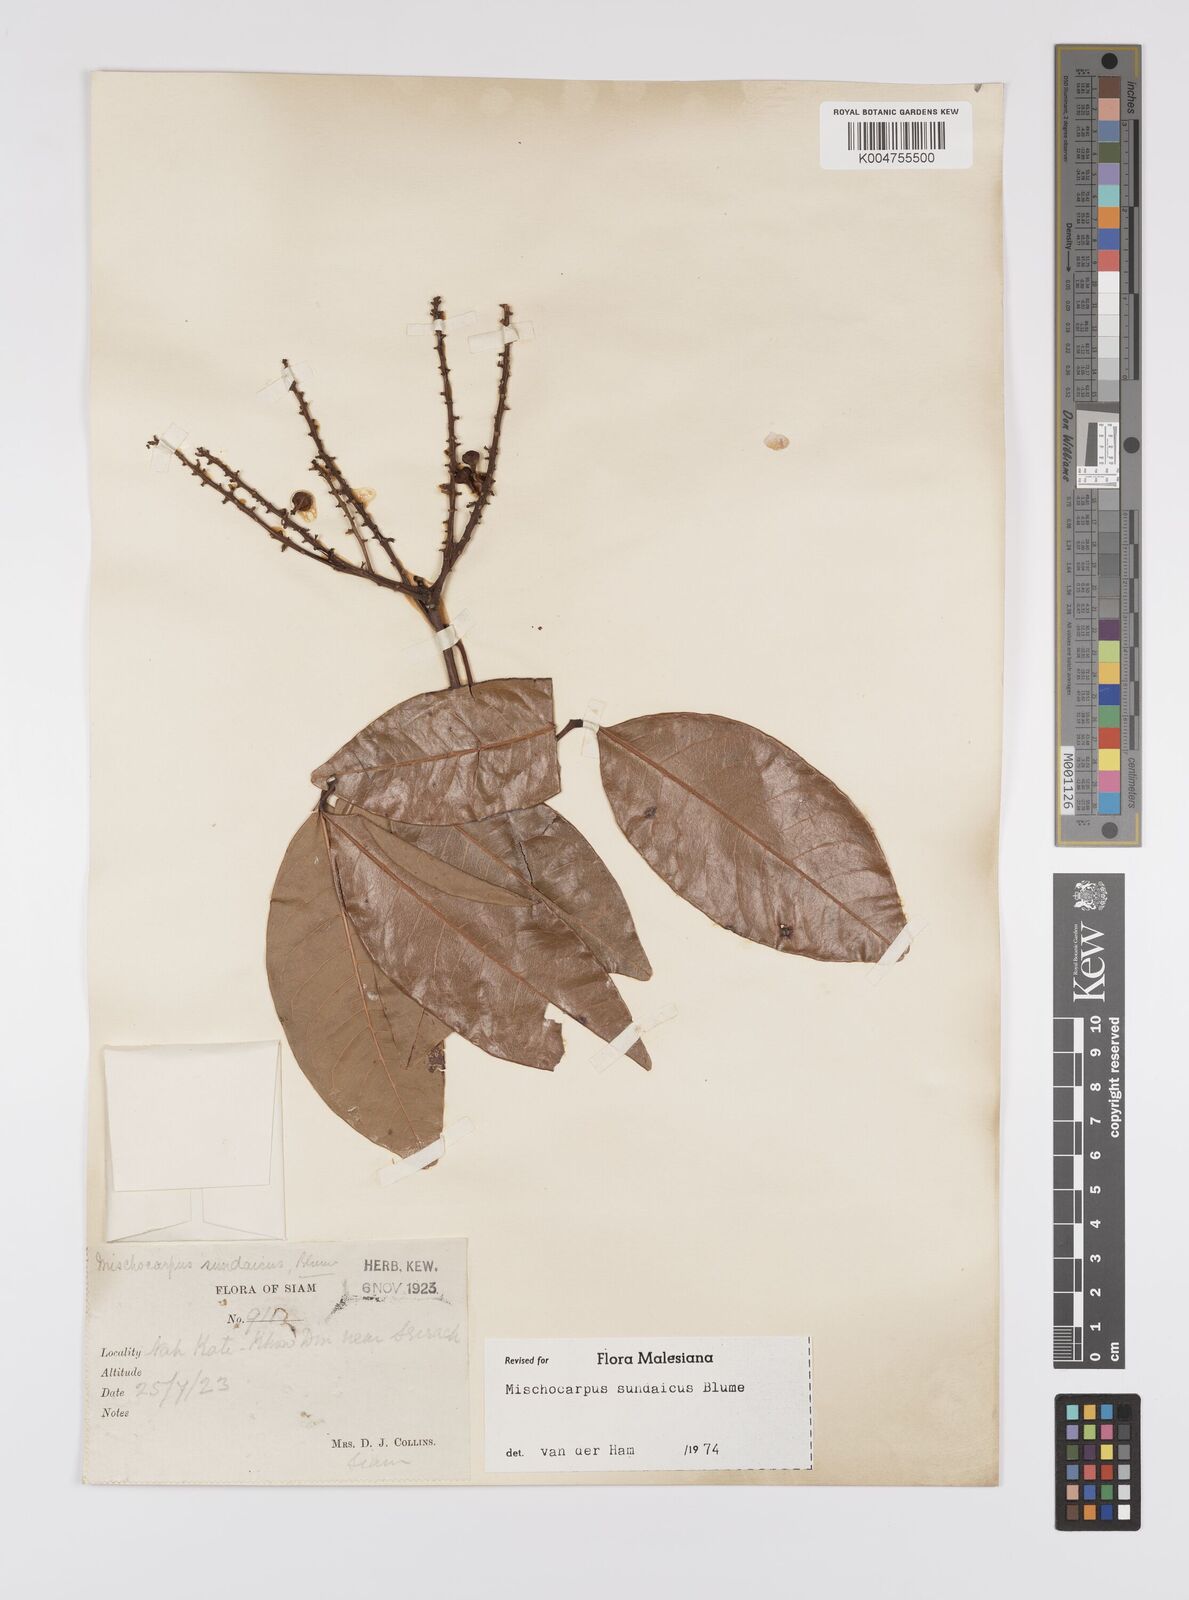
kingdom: Plantae
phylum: Tracheophyta
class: Magnoliopsida
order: Sapindales
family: Sapindaceae
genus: Mischocarpus
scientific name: Mischocarpus sundaicus
